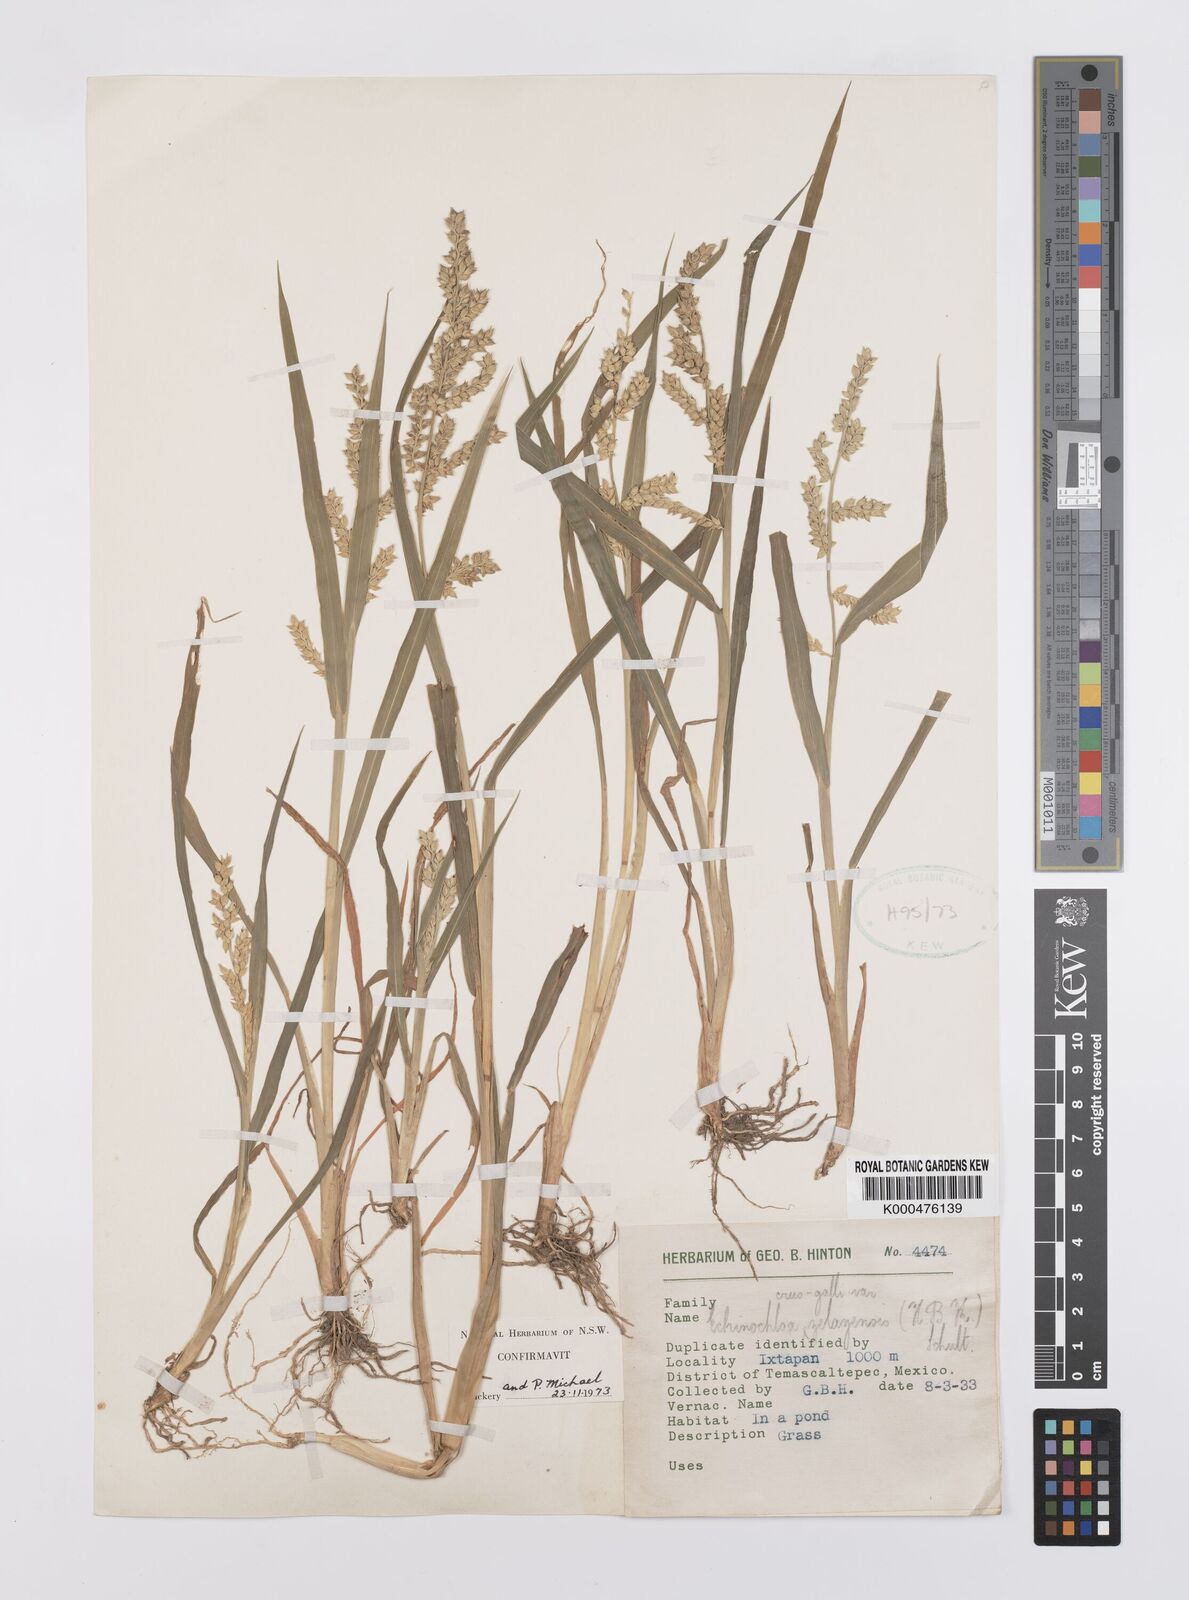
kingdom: Plantae
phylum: Tracheophyta
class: Liliopsida
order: Poales
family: Poaceae
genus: Echinochloa
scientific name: Echinochloa crus-pavonis
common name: Gulf cockspur grass
